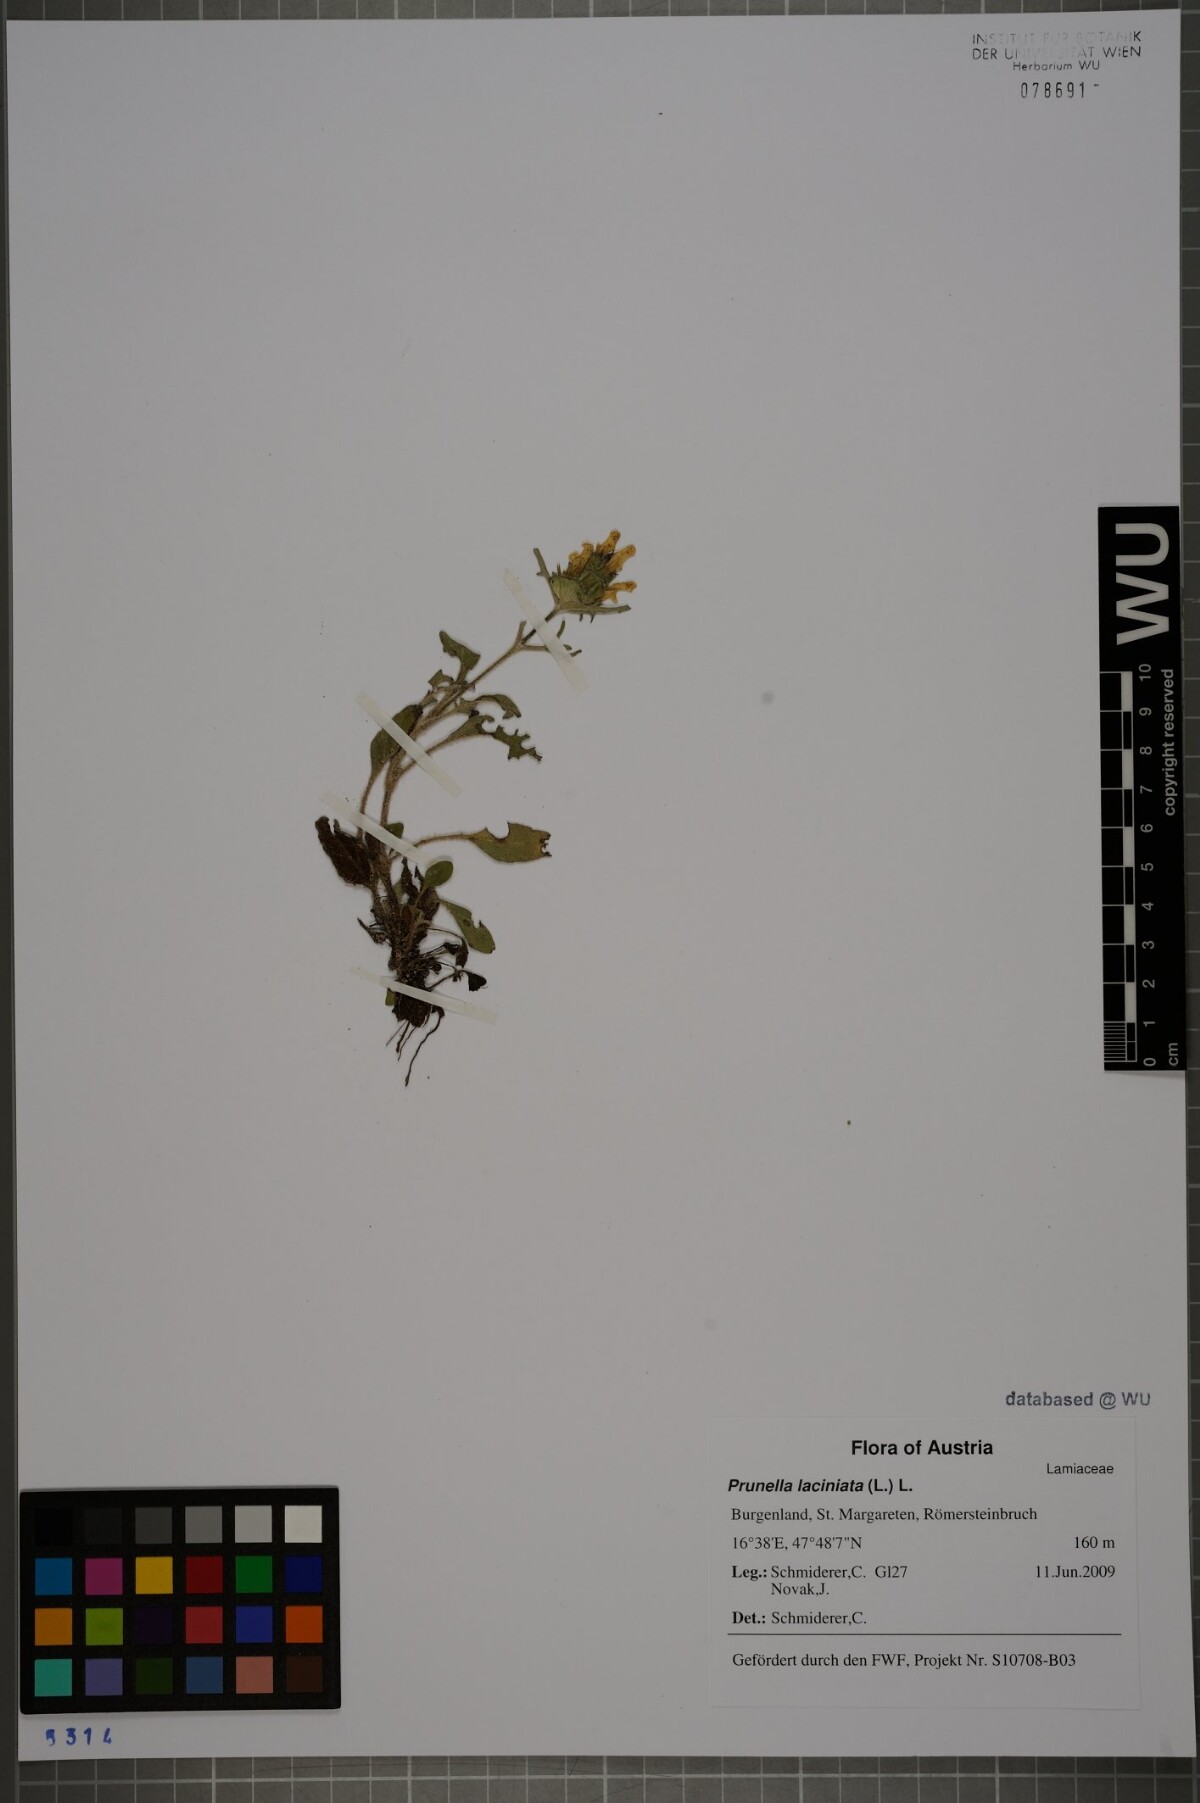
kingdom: Plantae
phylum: Tracheophyta
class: Magnoliopsida
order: Lamiales
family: Lamiaceae
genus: Prunella
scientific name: Prunella laciniata
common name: Cut-leaved selfheal
